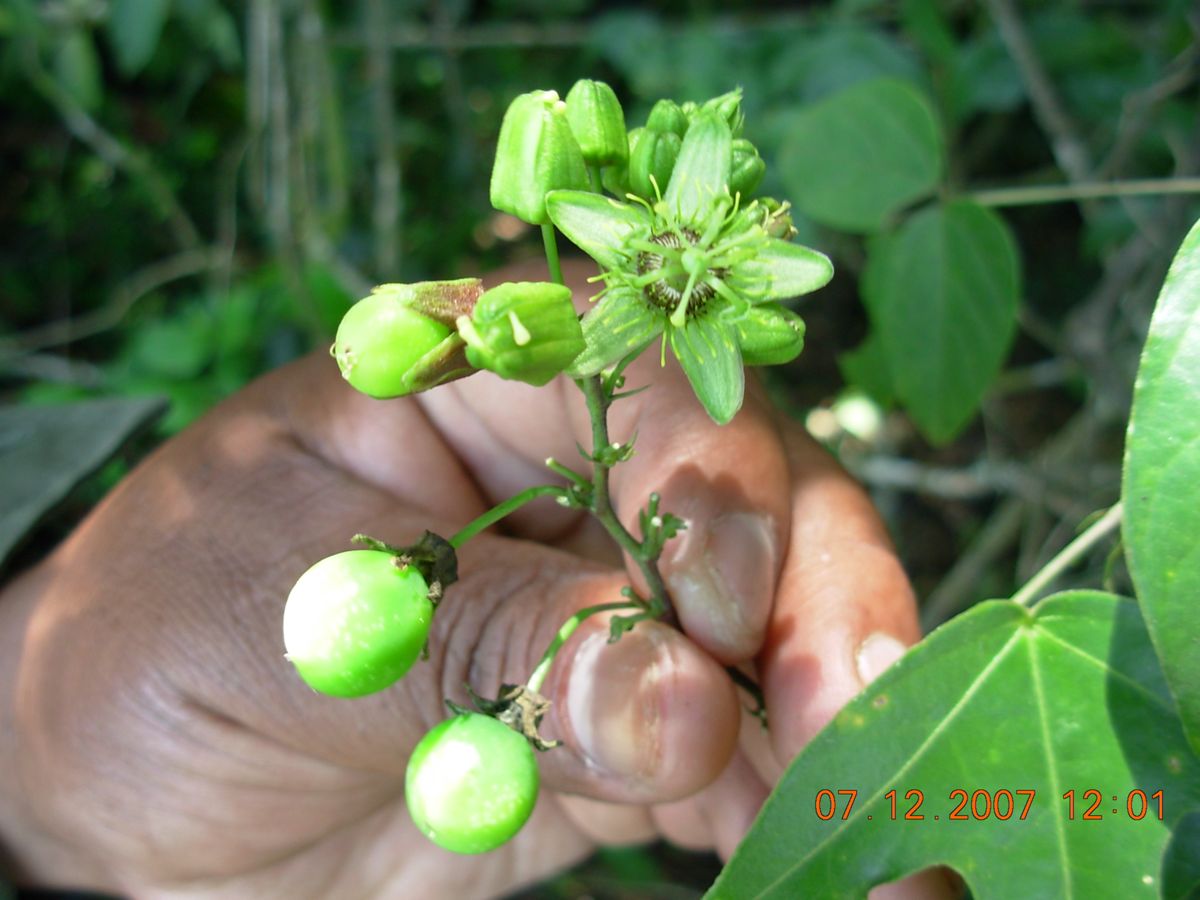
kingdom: Plantae
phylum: Tracheophyta
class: Magnoliopsida
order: Malpighiales
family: Passifloraceae
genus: Passiflora
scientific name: Passiflora coriacea
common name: Bat-leaf passionflower
